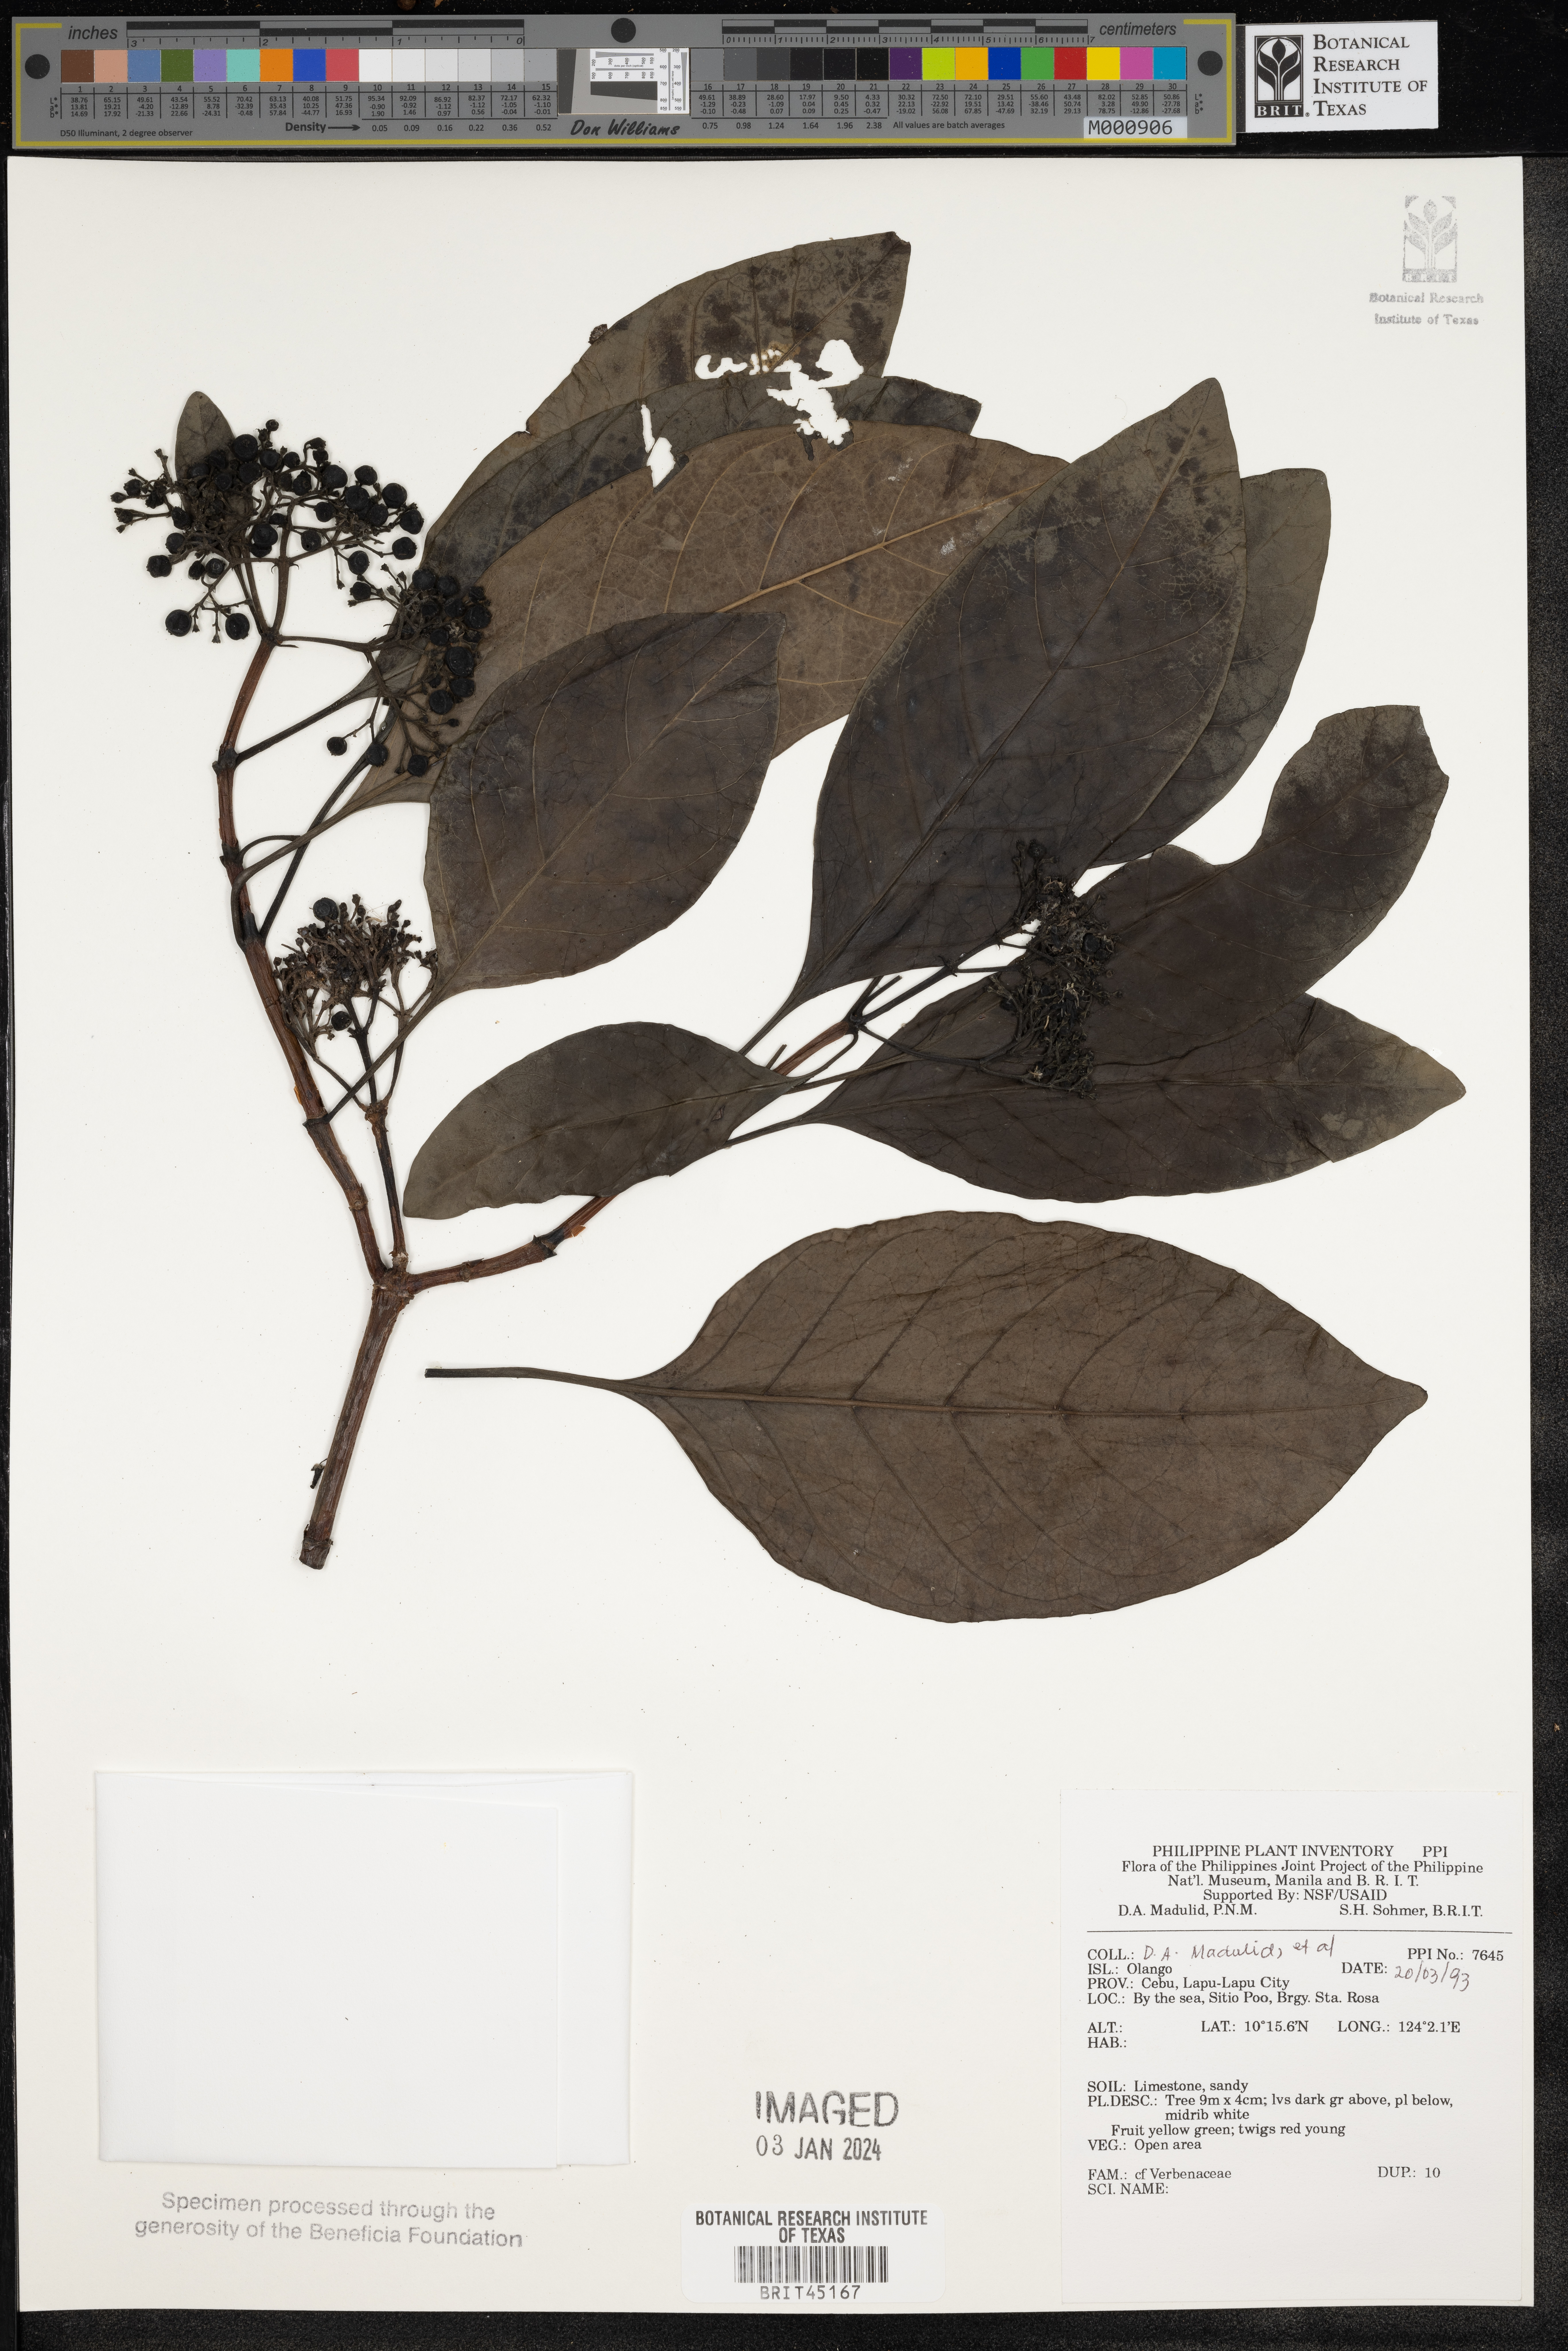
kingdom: Plantae
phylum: Tracheophyta
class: Magnoliopsida
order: Lamiales
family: Verbenaceae
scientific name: Verbenaceae
